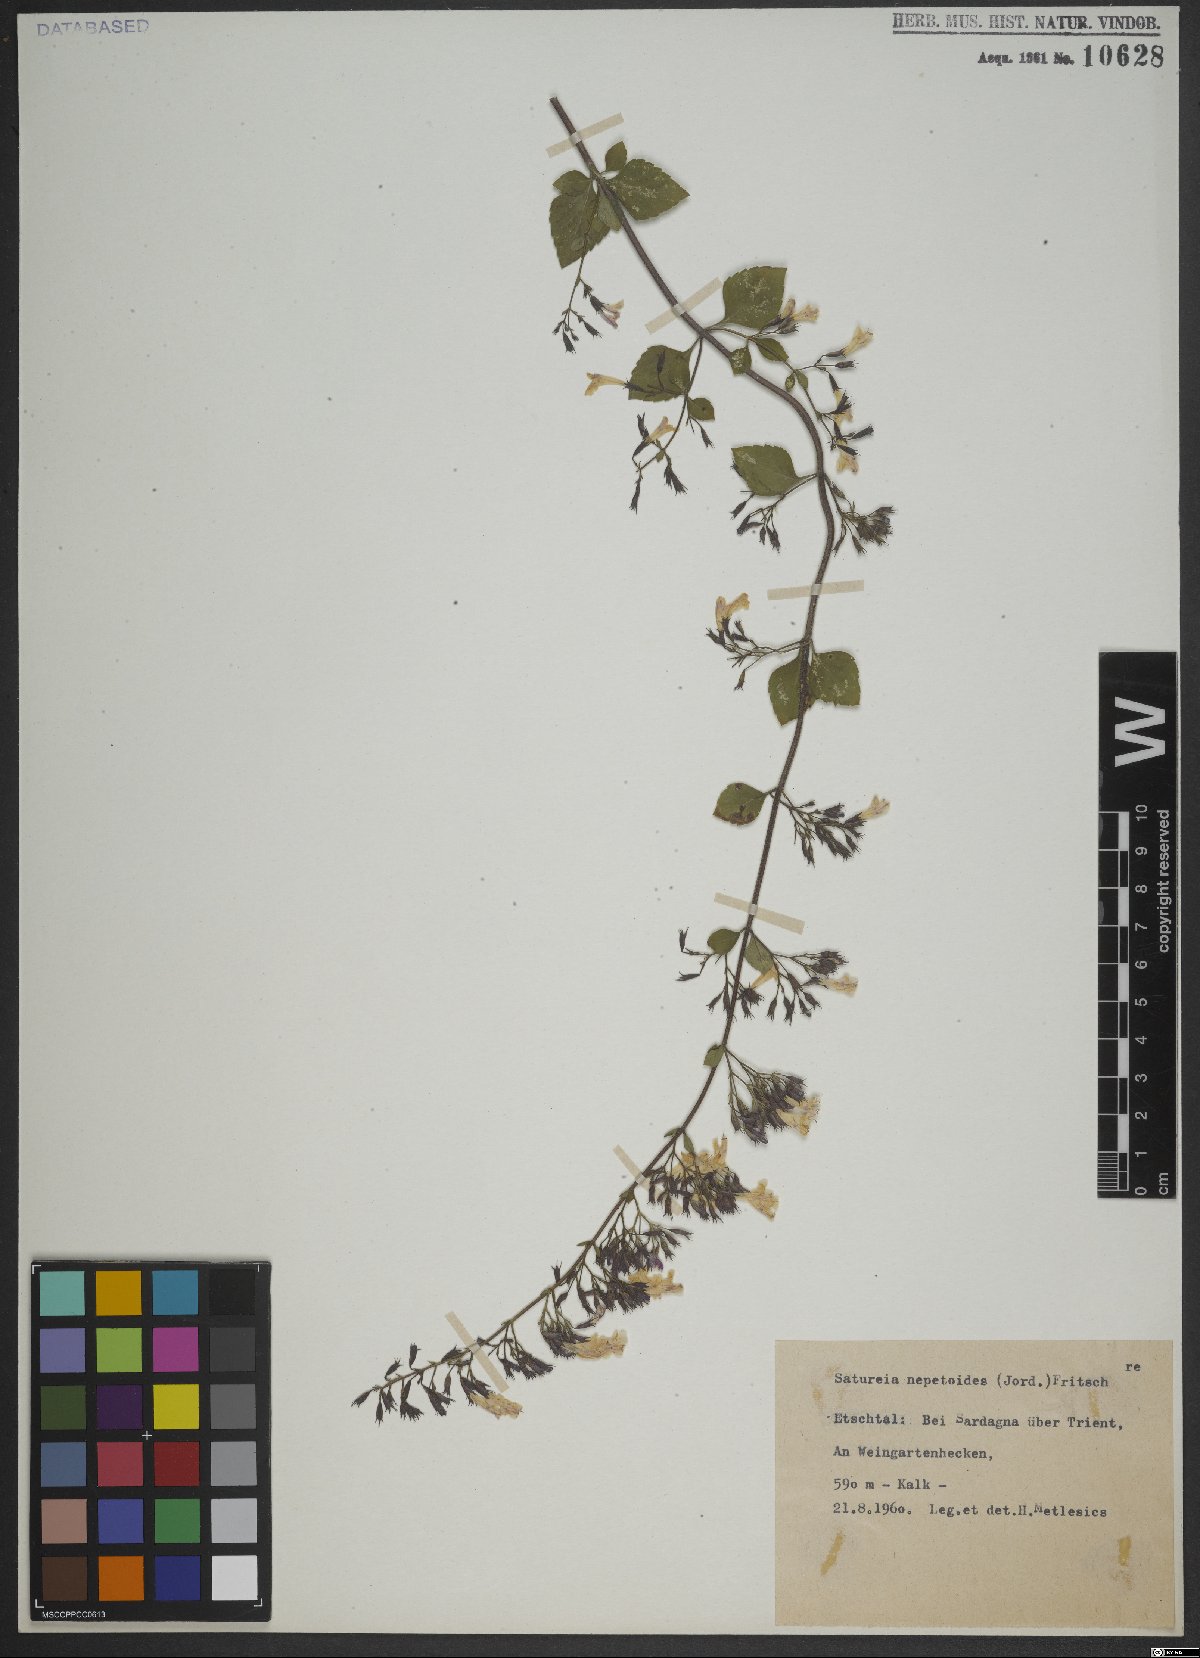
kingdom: Plantae
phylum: Tracheophyta
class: Magnoliopsida
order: Lamiales
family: Lamiaceae
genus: Clinopodium
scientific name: Clinopodium nepeta
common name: Lesser calamint
